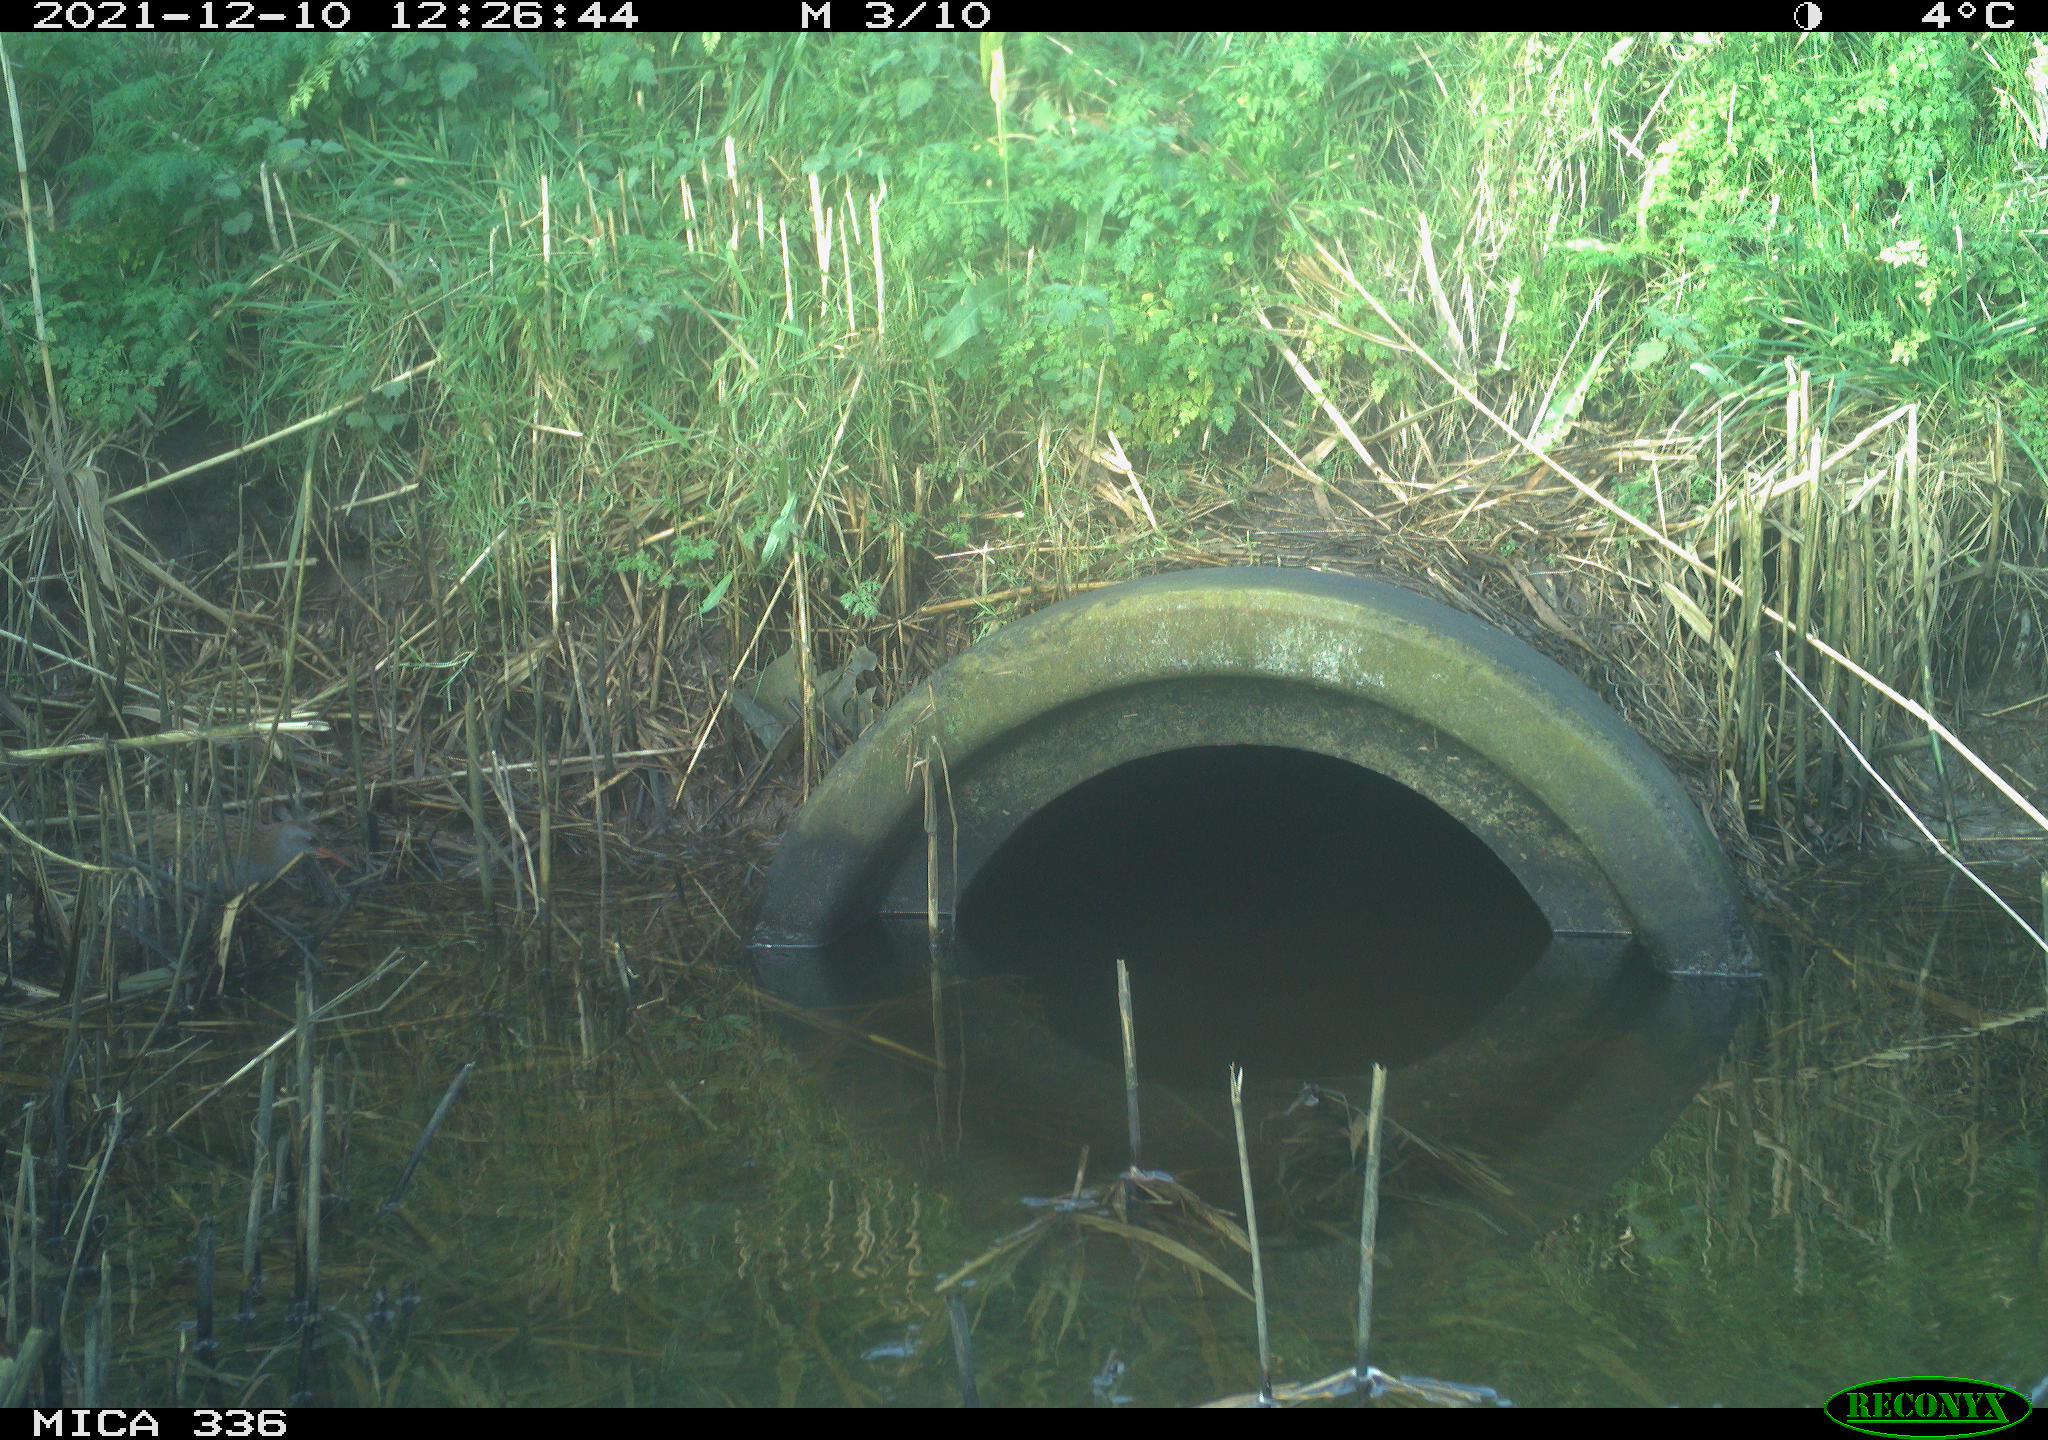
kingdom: Animalia
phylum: Chordata
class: Aves
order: Gruiformes
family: Rallidae
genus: Gallinula
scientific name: Gallinula chloropus
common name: Common moorhen
